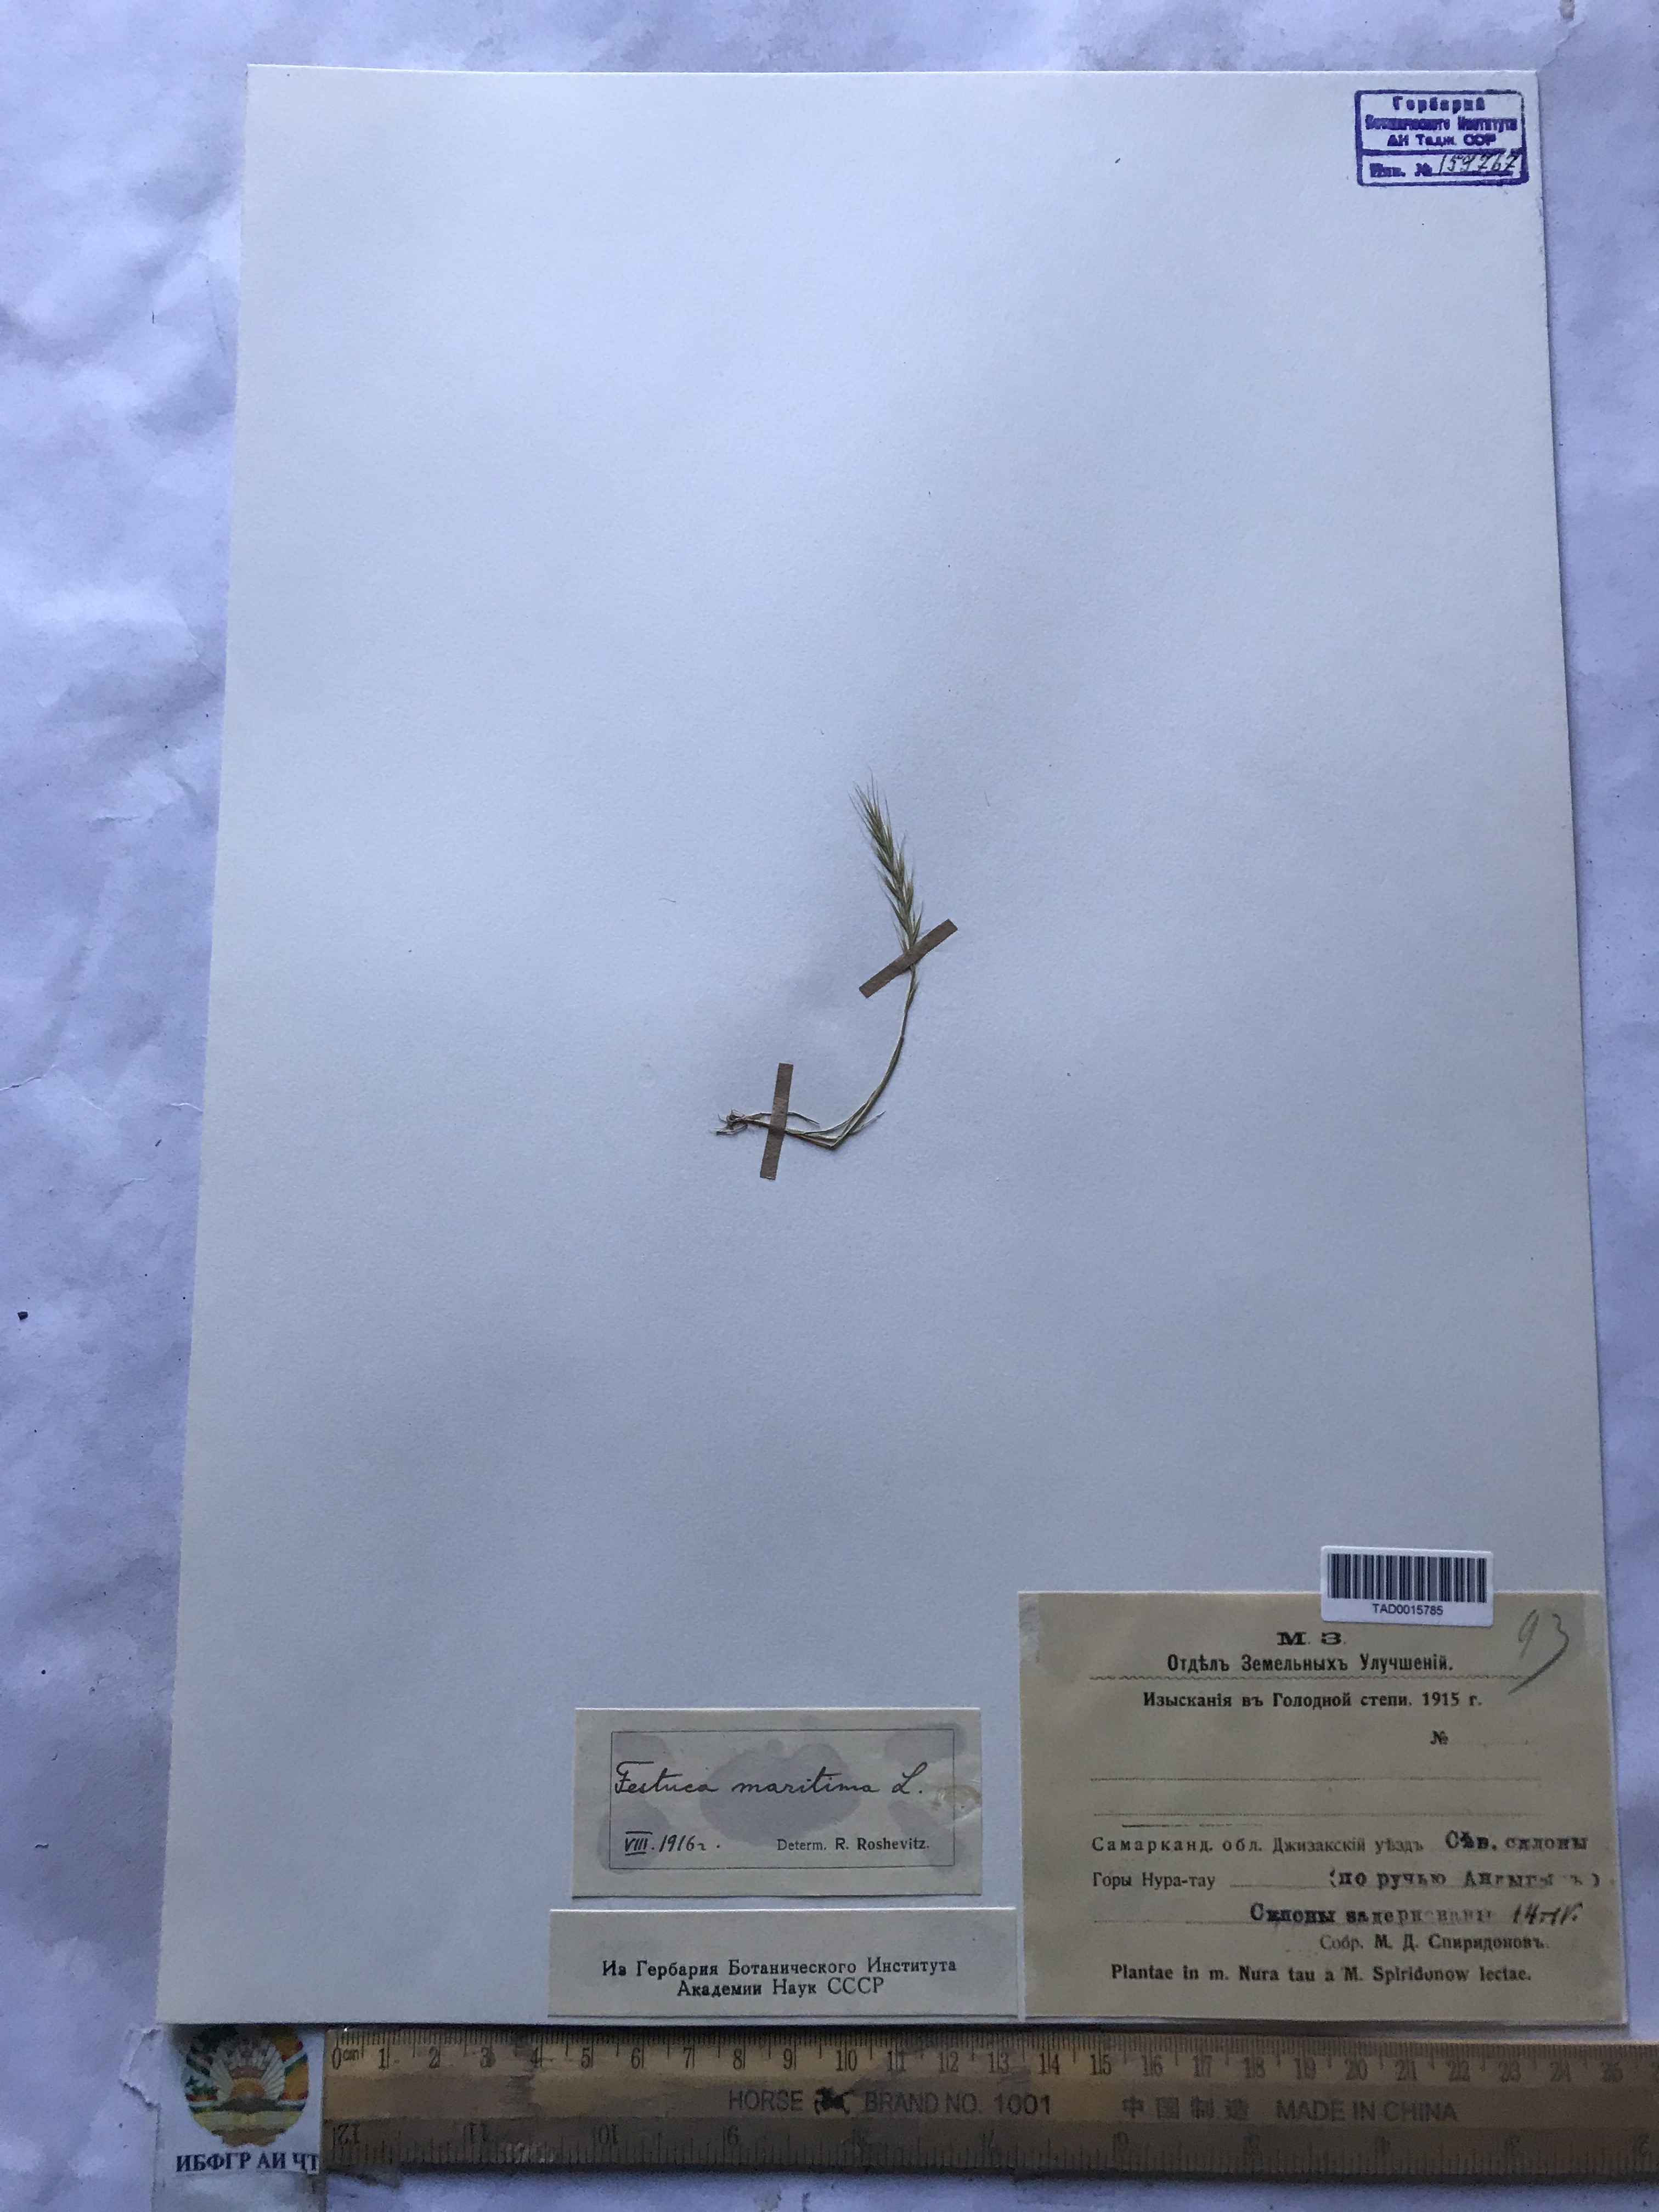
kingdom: Plantae
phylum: Tracheophyta
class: Liliopsida
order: Poales
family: Poaceae
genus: Festuca
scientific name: Festuca maritima
